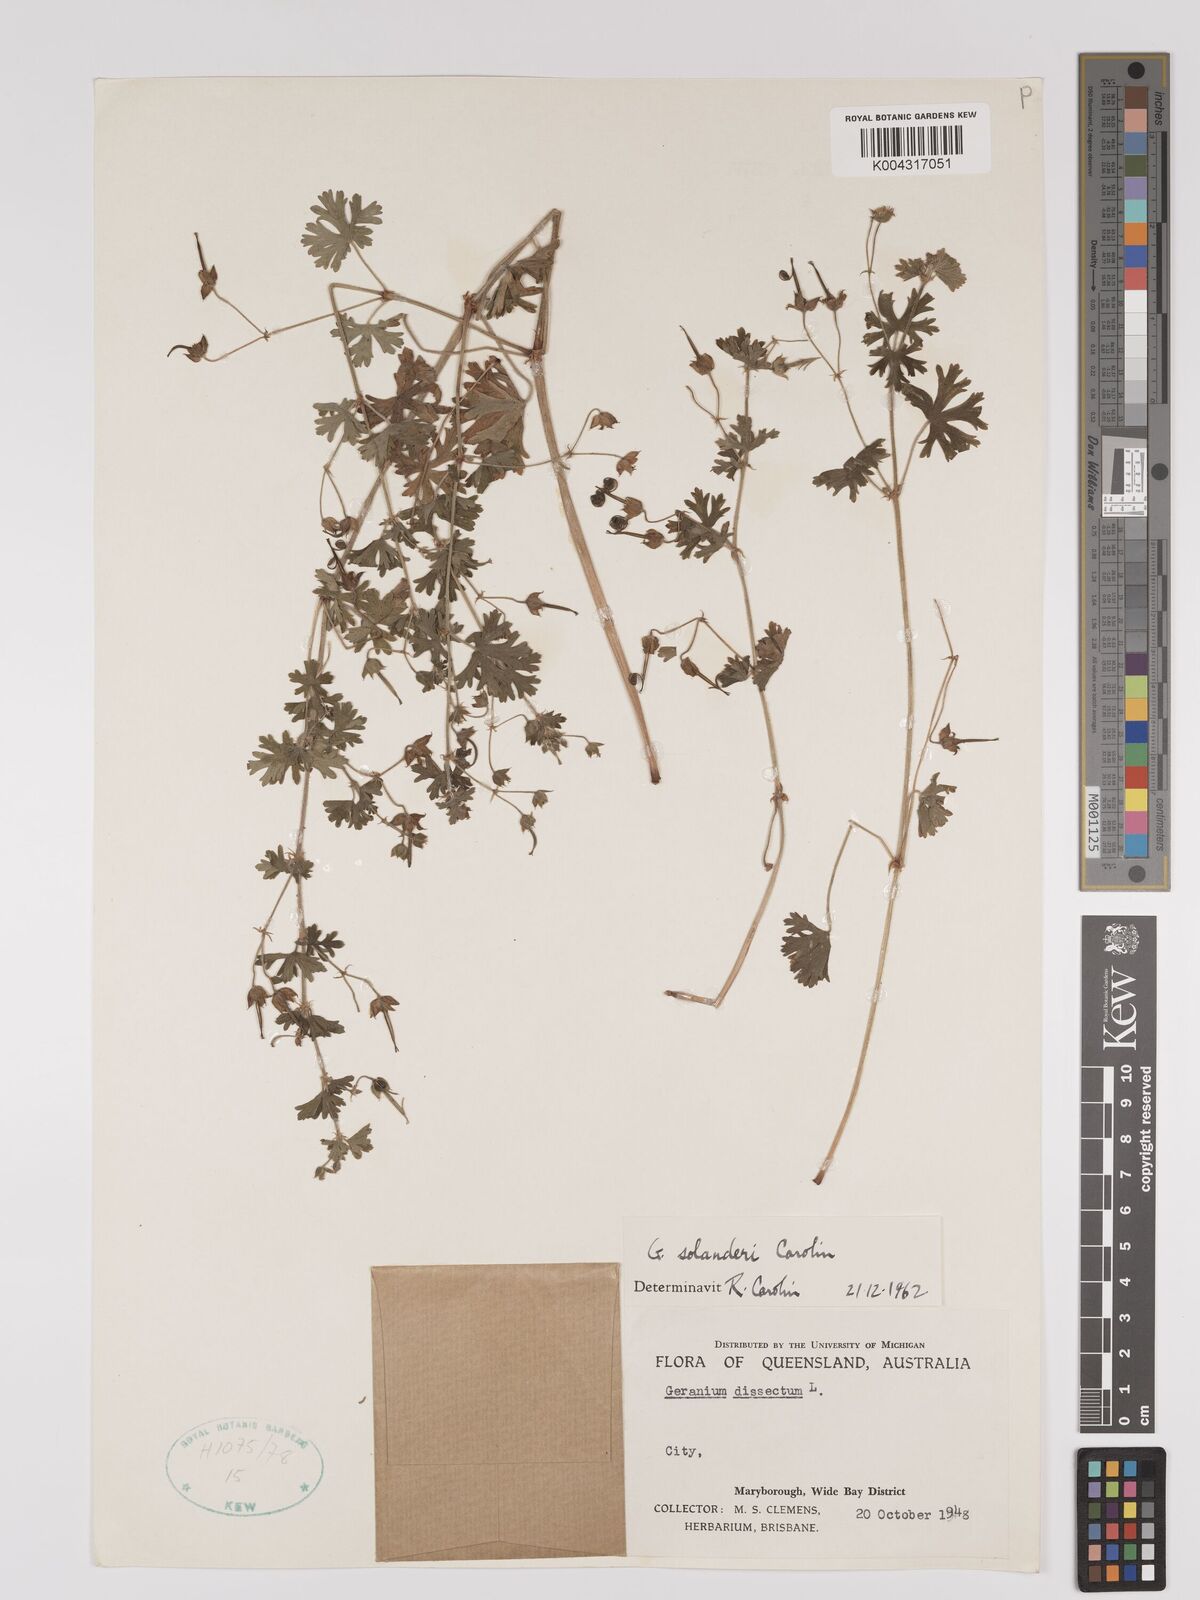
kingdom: Plantae
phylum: Tracheophyta
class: Magnoliopsida
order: Geraniales
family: Geraniaceae
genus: Geranium
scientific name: Geranium solanderi
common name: Solander's geranium
